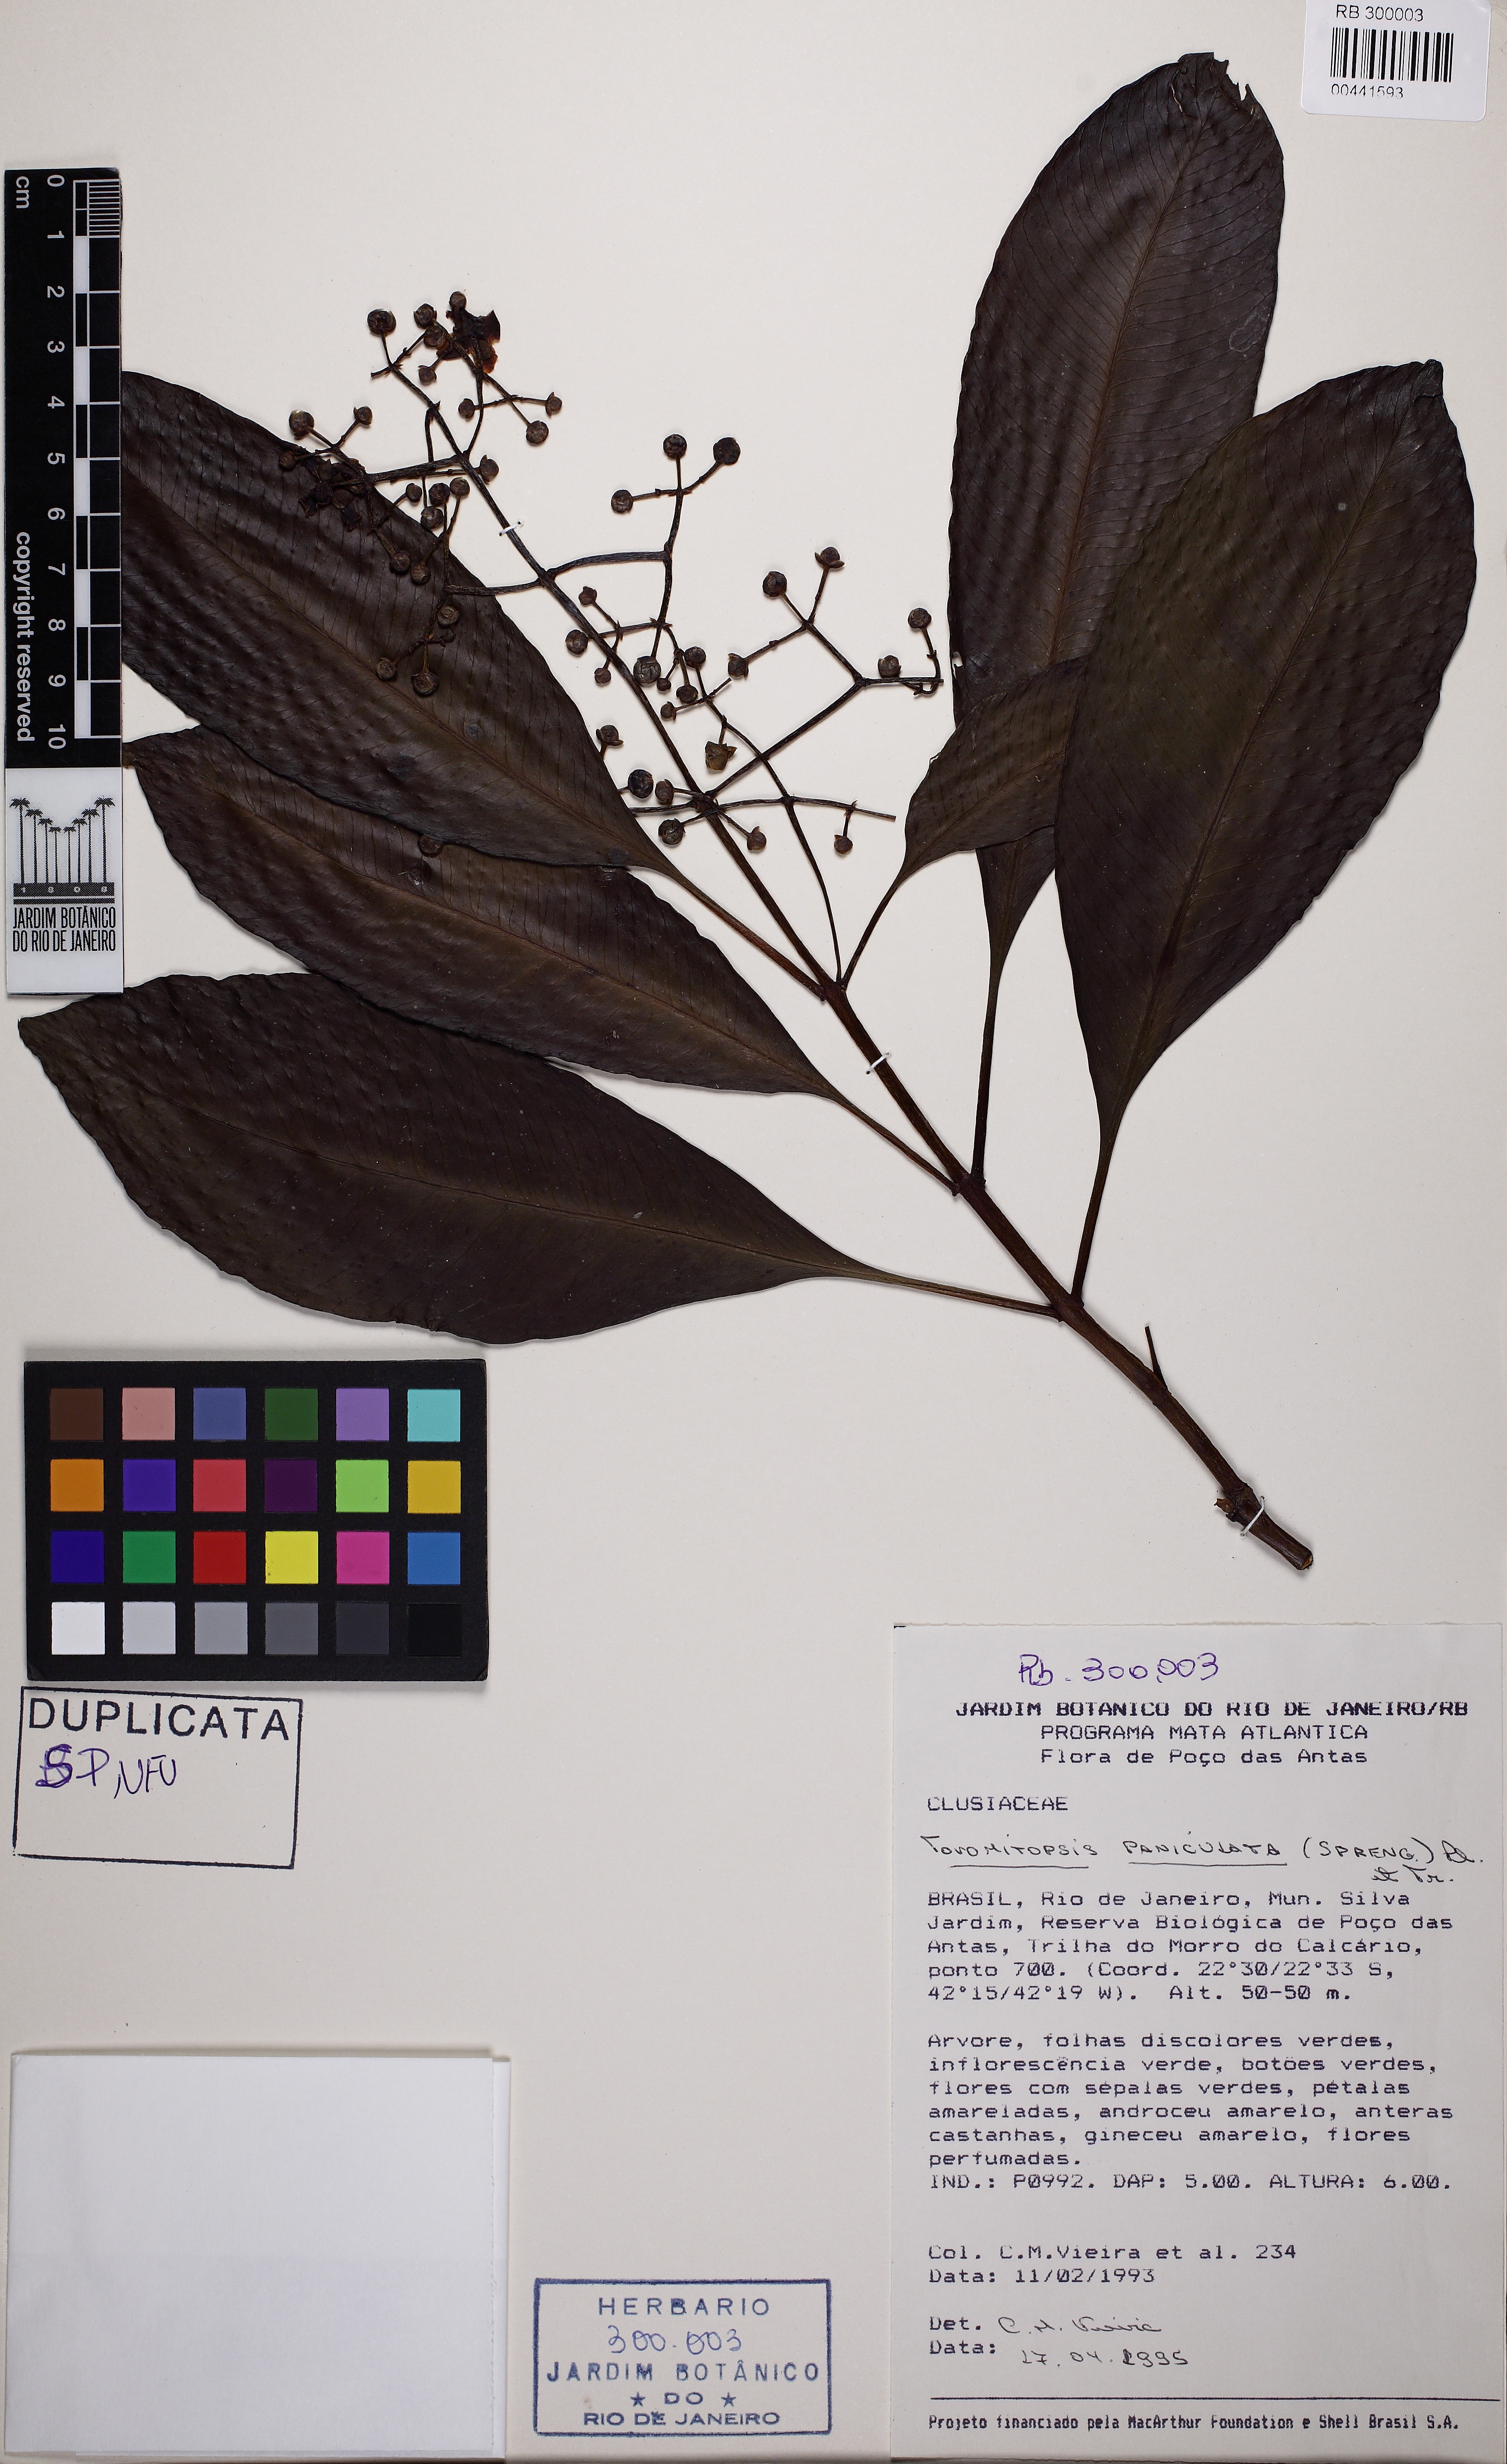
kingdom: Plantae
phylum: Tracheophyta
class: Magnoliopsida
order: Malpighiales
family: Clusiaceae
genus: Chrysochlamys
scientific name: Chrysochlamys paniculata
